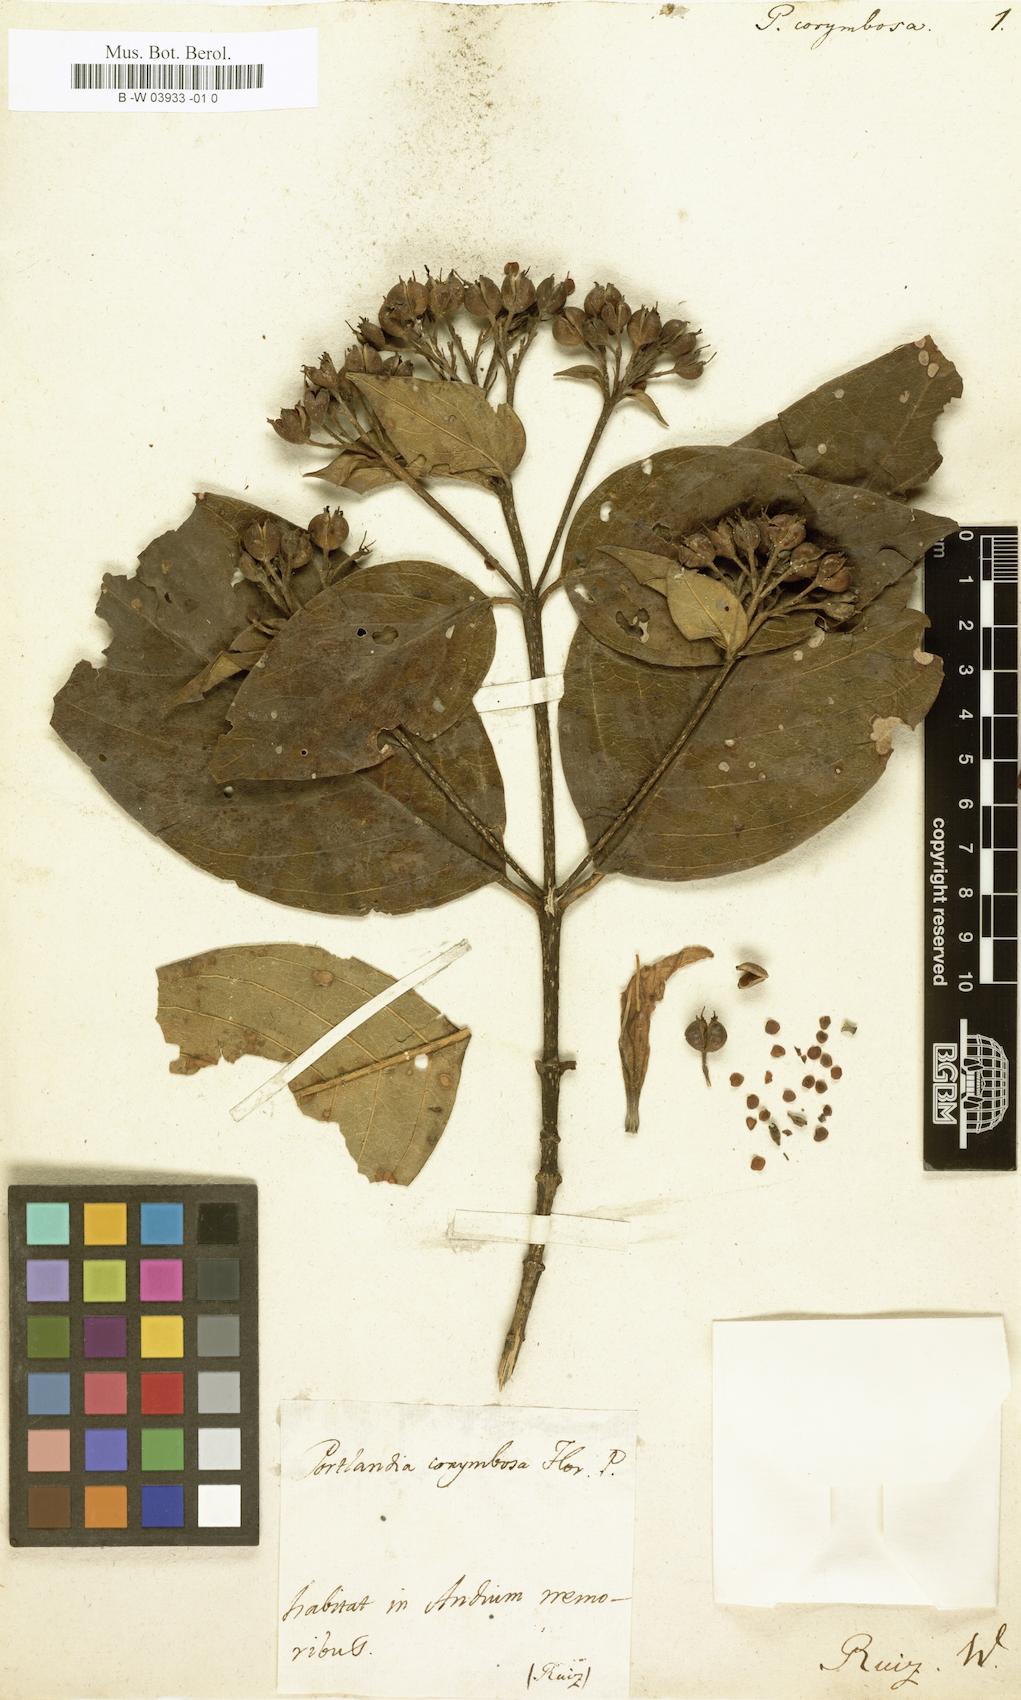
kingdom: Plantae
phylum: Tracheophyta
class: Magnoliopsida
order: Gentianales
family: Rubiaceae
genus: Motleyothamnus
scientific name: Motleyothamnus corymbosus
